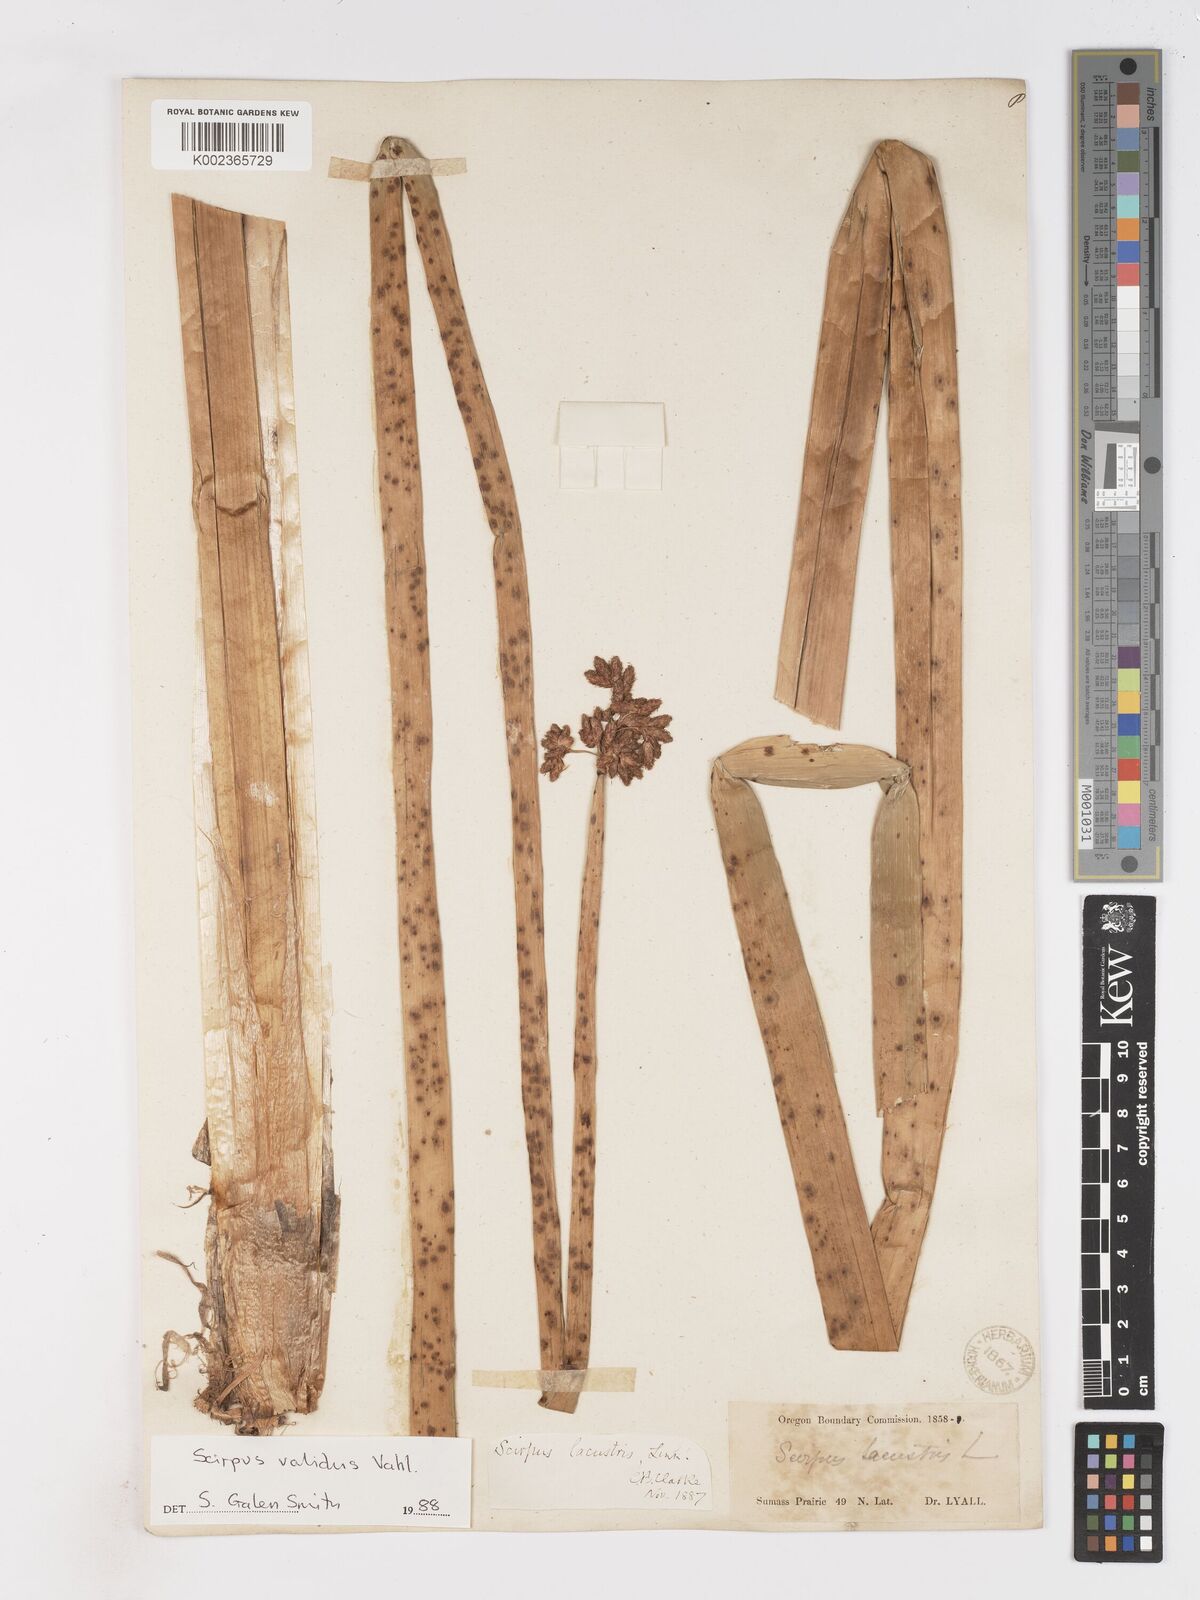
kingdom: Plantae
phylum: Tracheophyta
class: Liliopsida
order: Poales
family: Cyperaceae
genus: Schoenoplectus
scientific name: Schoenoplectus lacustris
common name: Common club-rush
